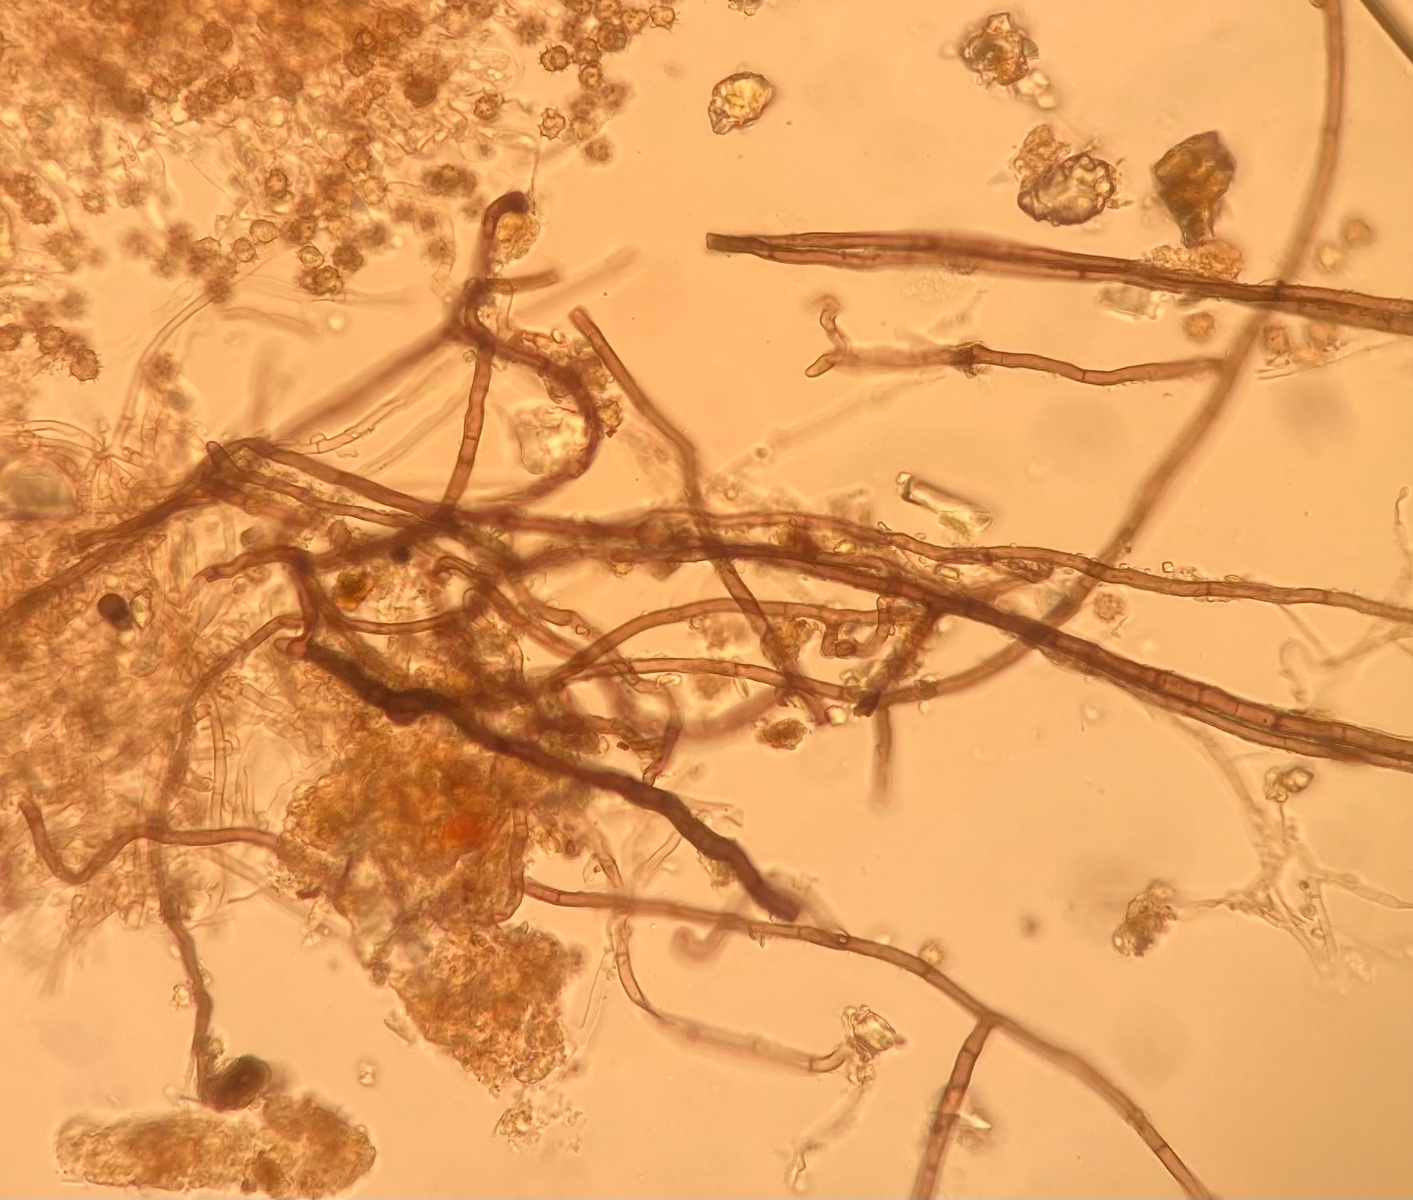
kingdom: Fungi
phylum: Basidiomycota
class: Agaricomycetes
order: Thelephorales
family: Thelephoraceae
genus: Tomentella
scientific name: Tomentella pilosa
